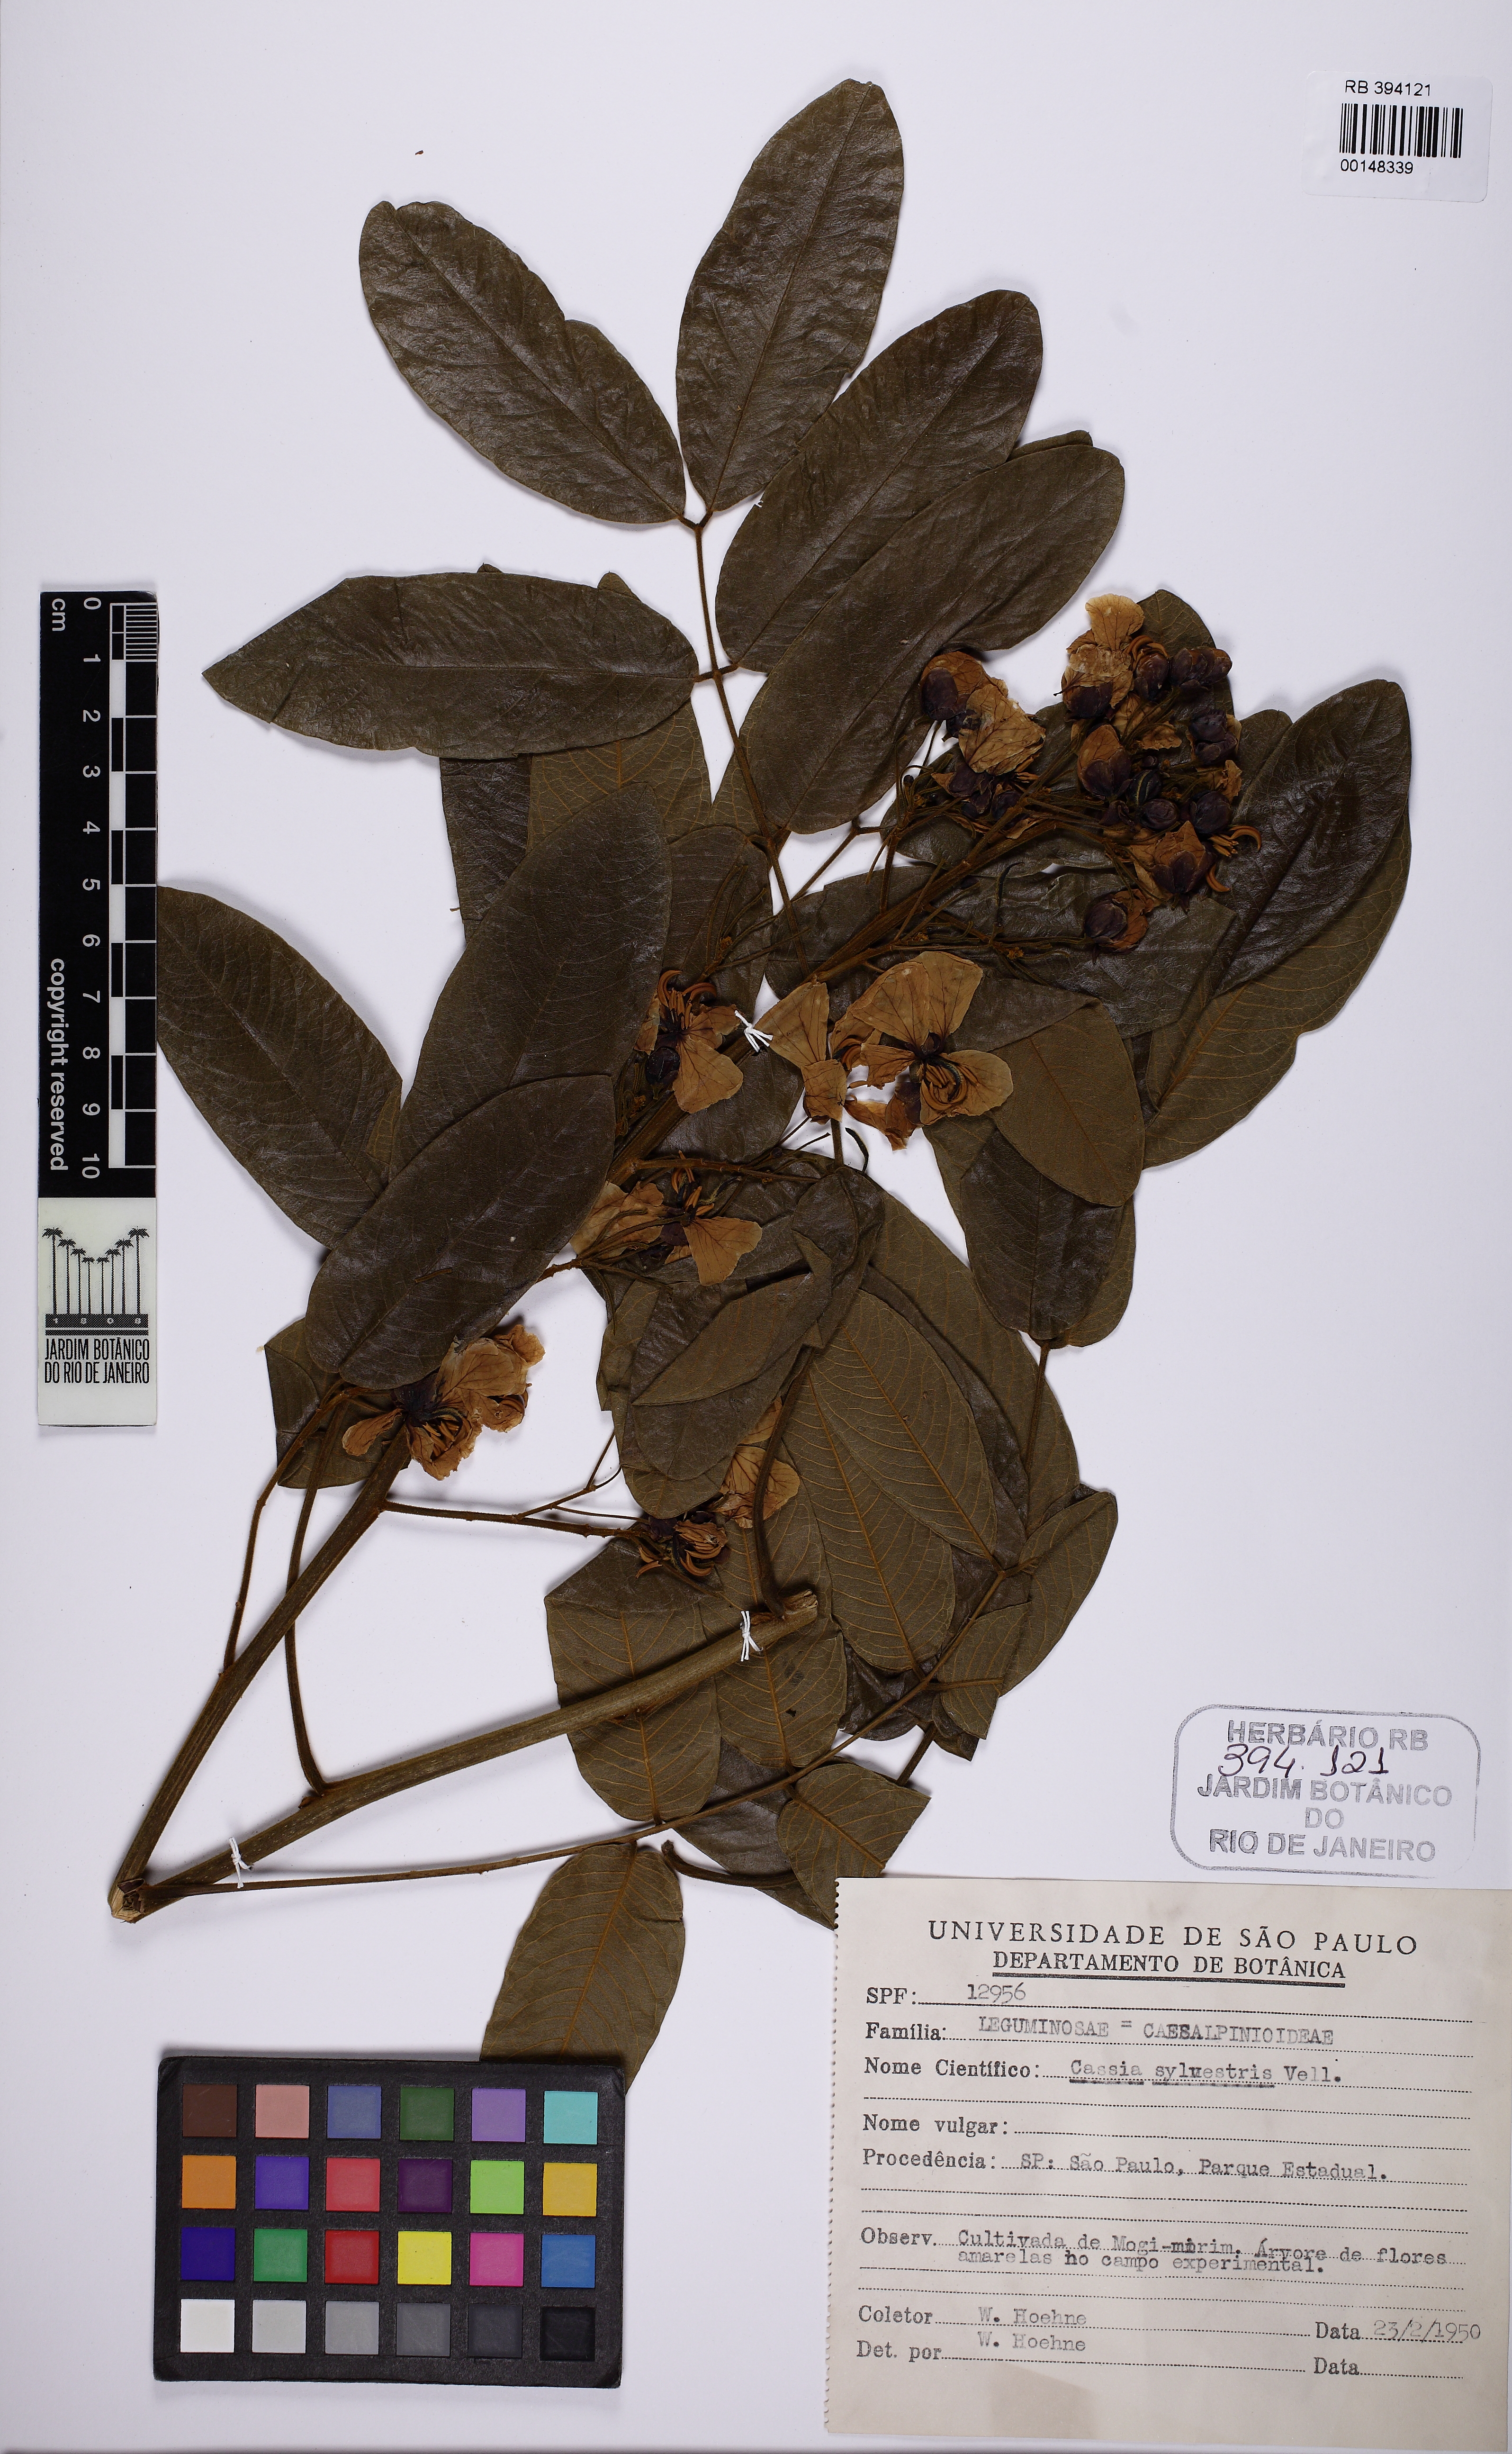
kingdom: Plantae
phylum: Tracheophyta
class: Magnoliopsida
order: Fabales
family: Fabaceae
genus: Senna
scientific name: Senna silvestris
